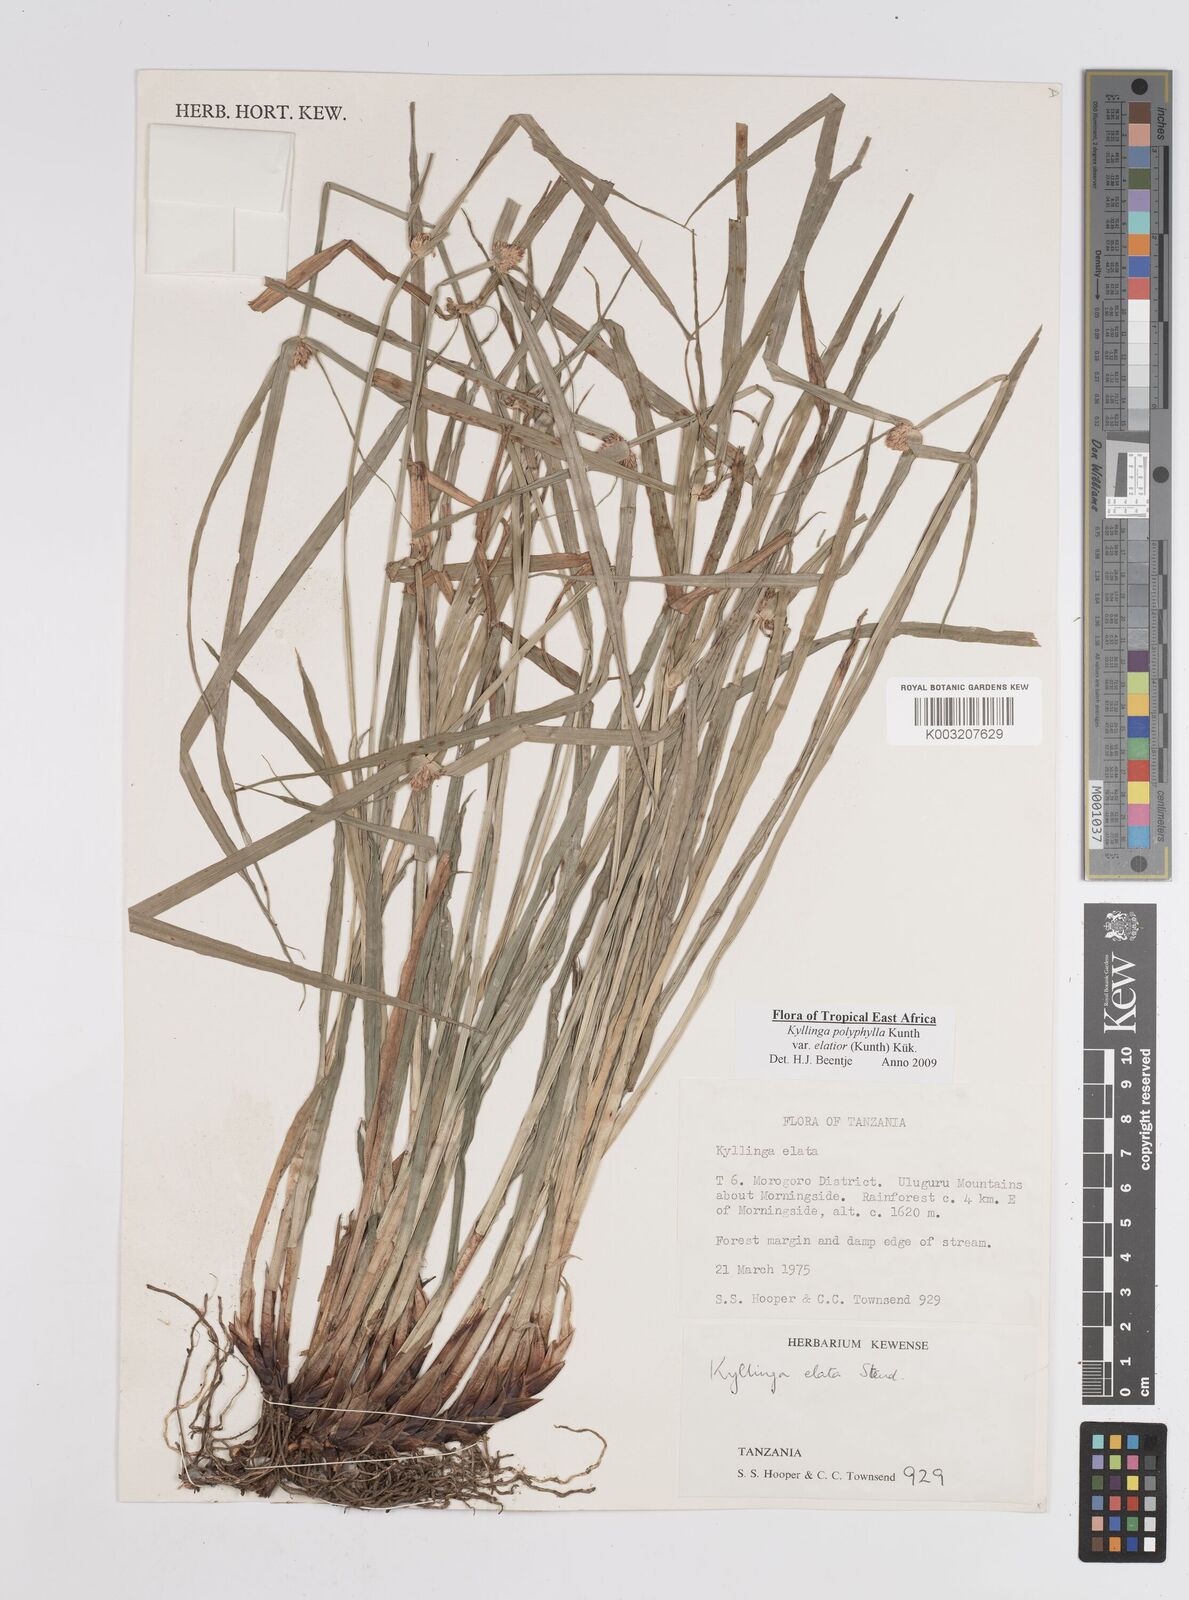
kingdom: Plantae
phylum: Tracheophyta
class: Liliopsida
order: Poales
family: Cyperaceae
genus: Cyperus
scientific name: Cyperus
